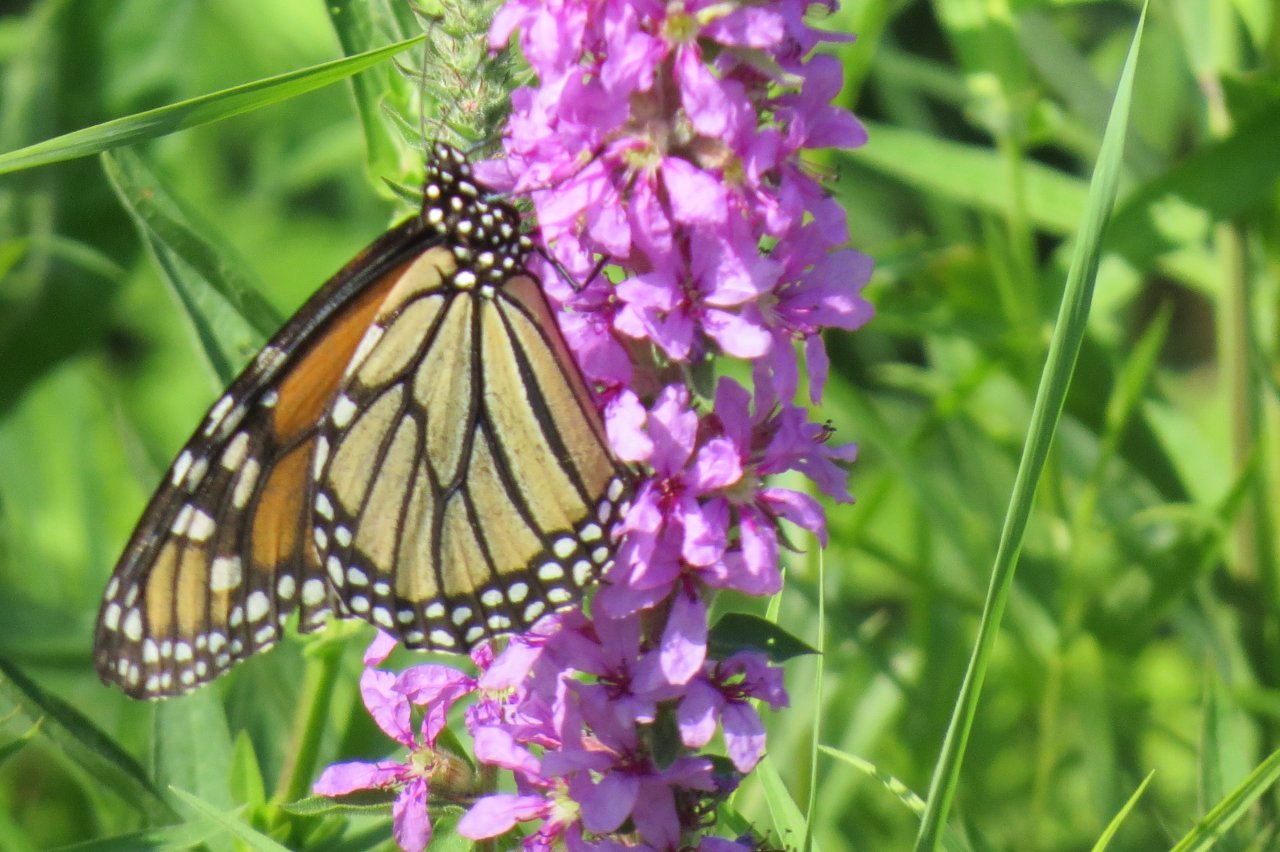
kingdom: Animalia
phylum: Arthropoda
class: Insecta
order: Lepidoptera
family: Nymphalidae
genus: Danaus
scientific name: Danaus plexippus
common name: Monarch
